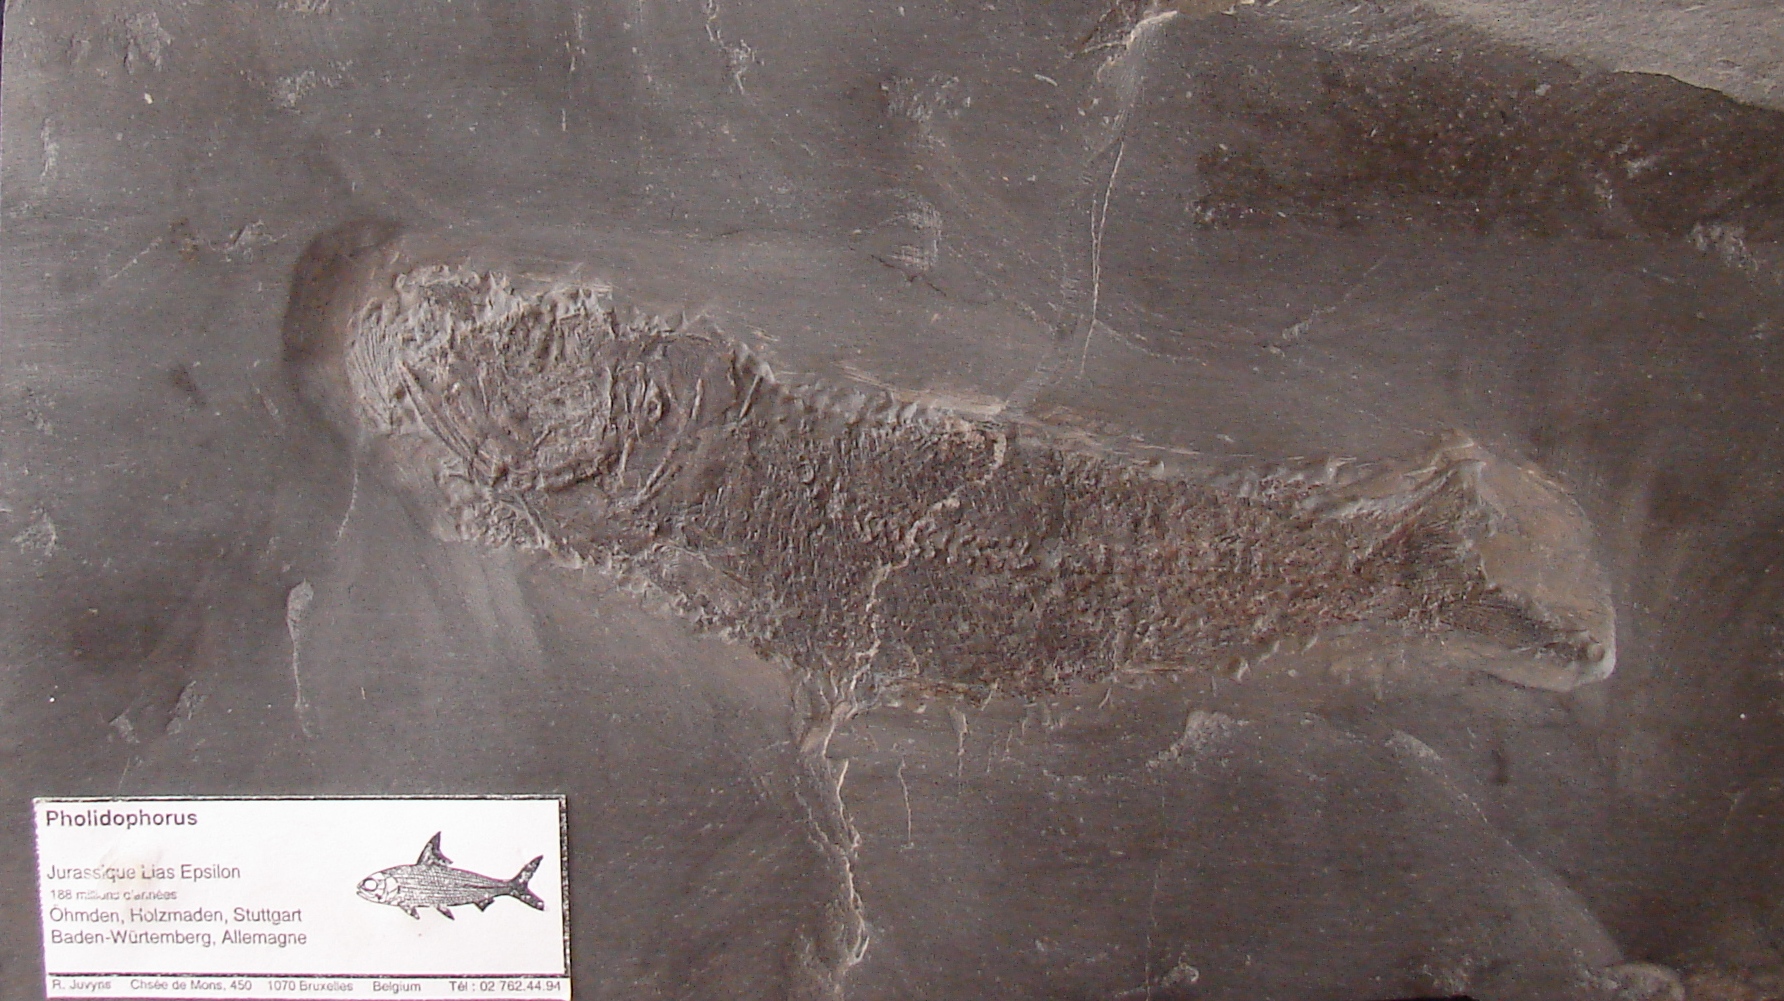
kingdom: Animalia
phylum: Chordata
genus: Luxembourgichthys
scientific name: Luxembourgichthys friedeni
